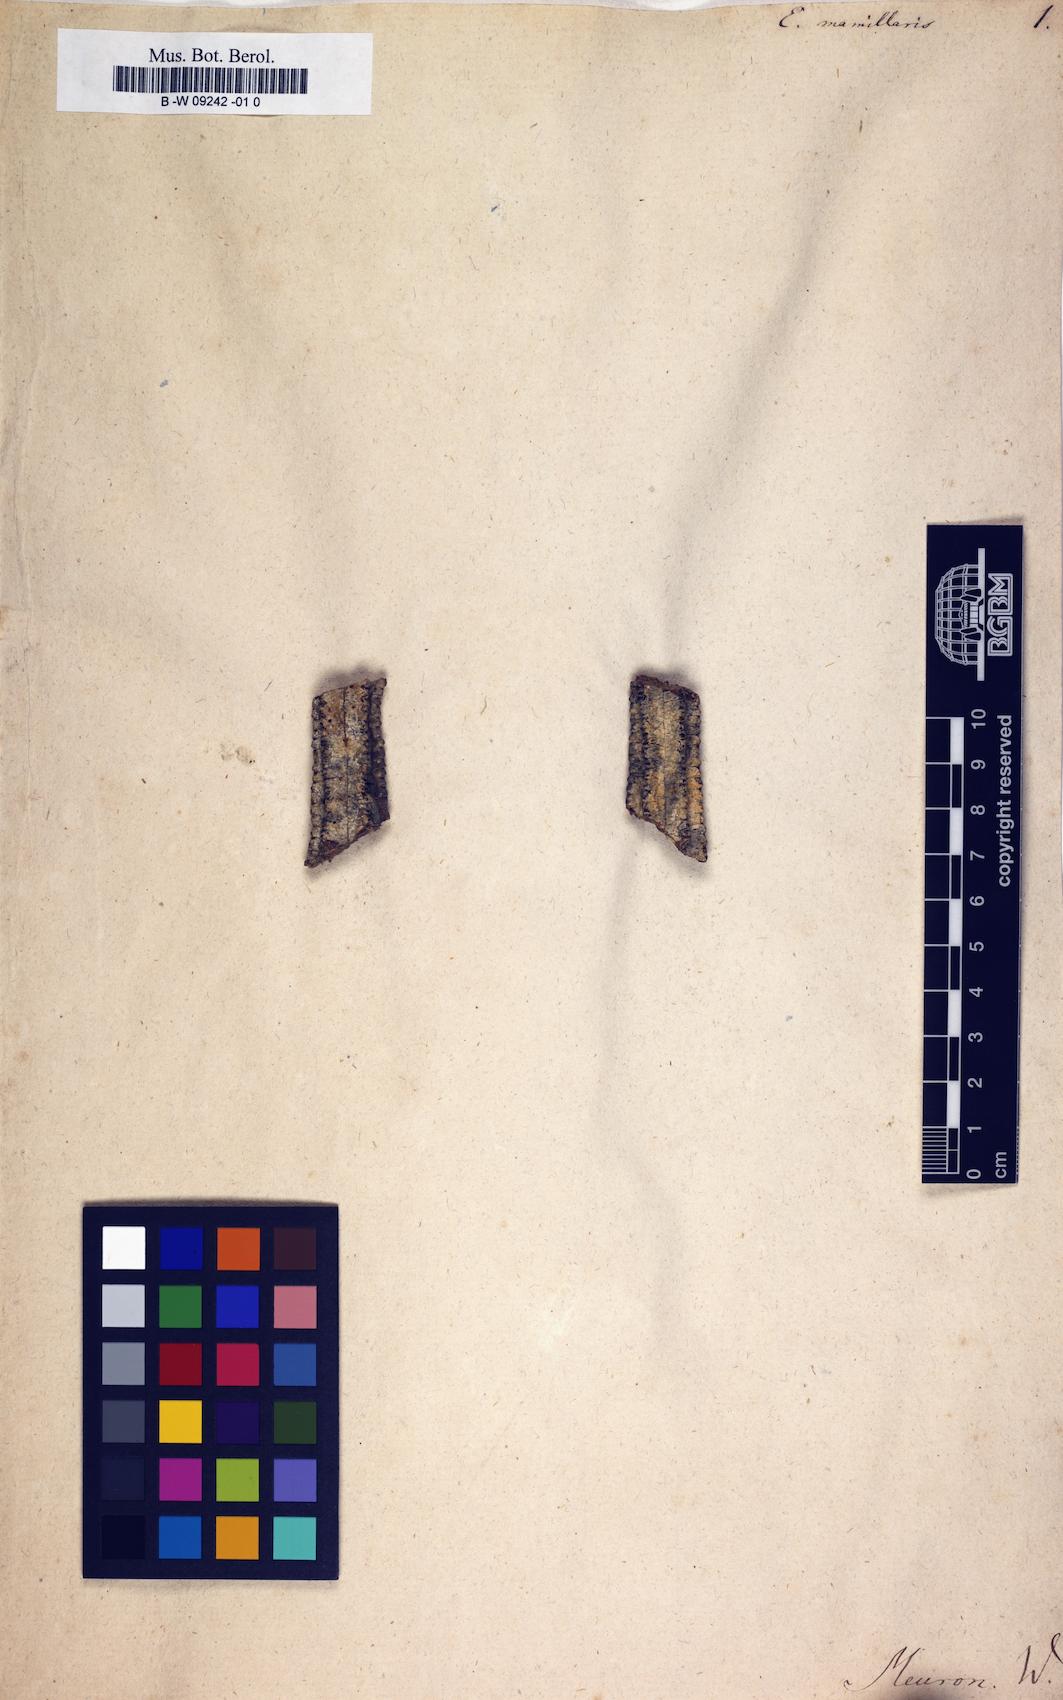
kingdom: Plantae
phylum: Tracheophyta
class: Magnoliopsida
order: Malpighiales
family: Euphorbiaceae
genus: Euphorbia
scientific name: Euphorbia venefica
